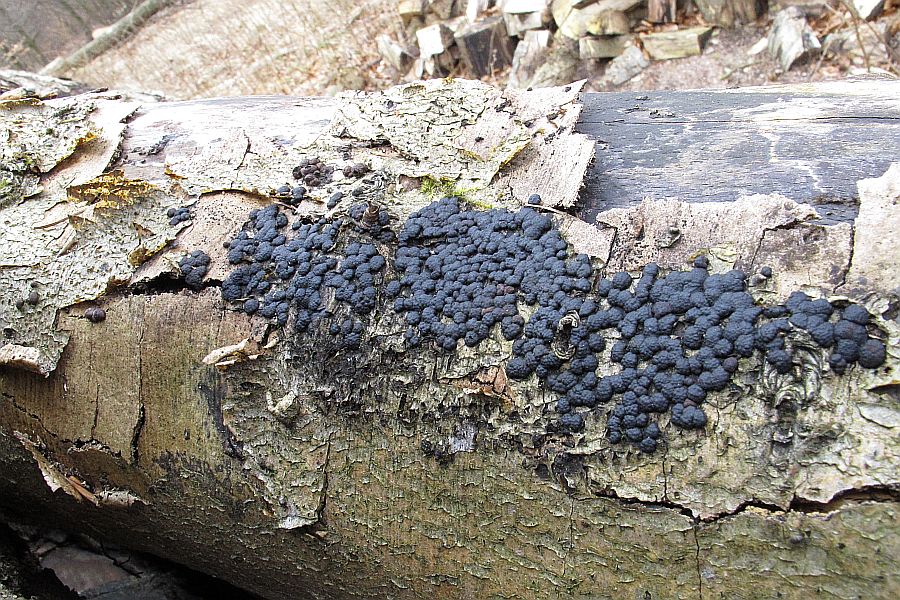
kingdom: Fungi
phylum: Ascomycota
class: Sordariomycetes
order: Xylariales
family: Hypoxylaceae
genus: Jackrogersella
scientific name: Jackrogersella cohaerens
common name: sammenflydende kulbær
